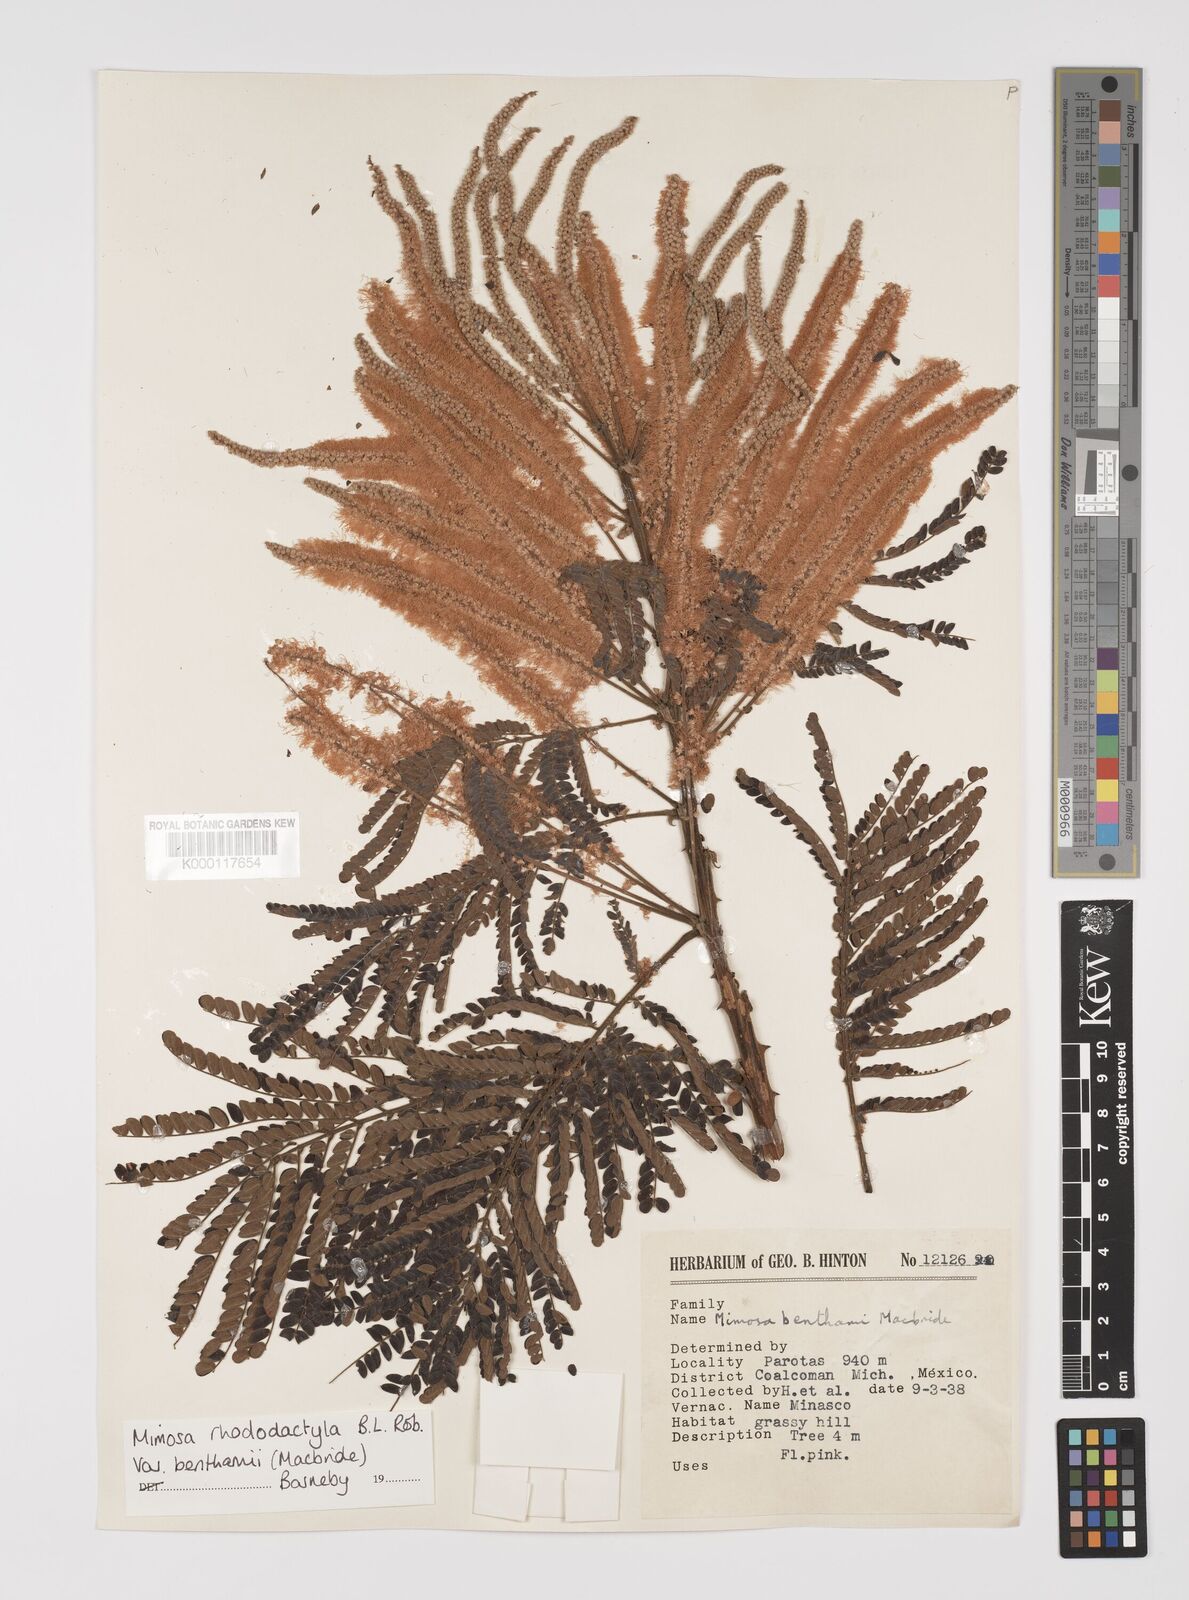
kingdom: Plantae
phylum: Tracheophyta
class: Magnoliopsida
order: Fabales
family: Fabaceae
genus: Mimosa
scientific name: Mimosa benthamii
